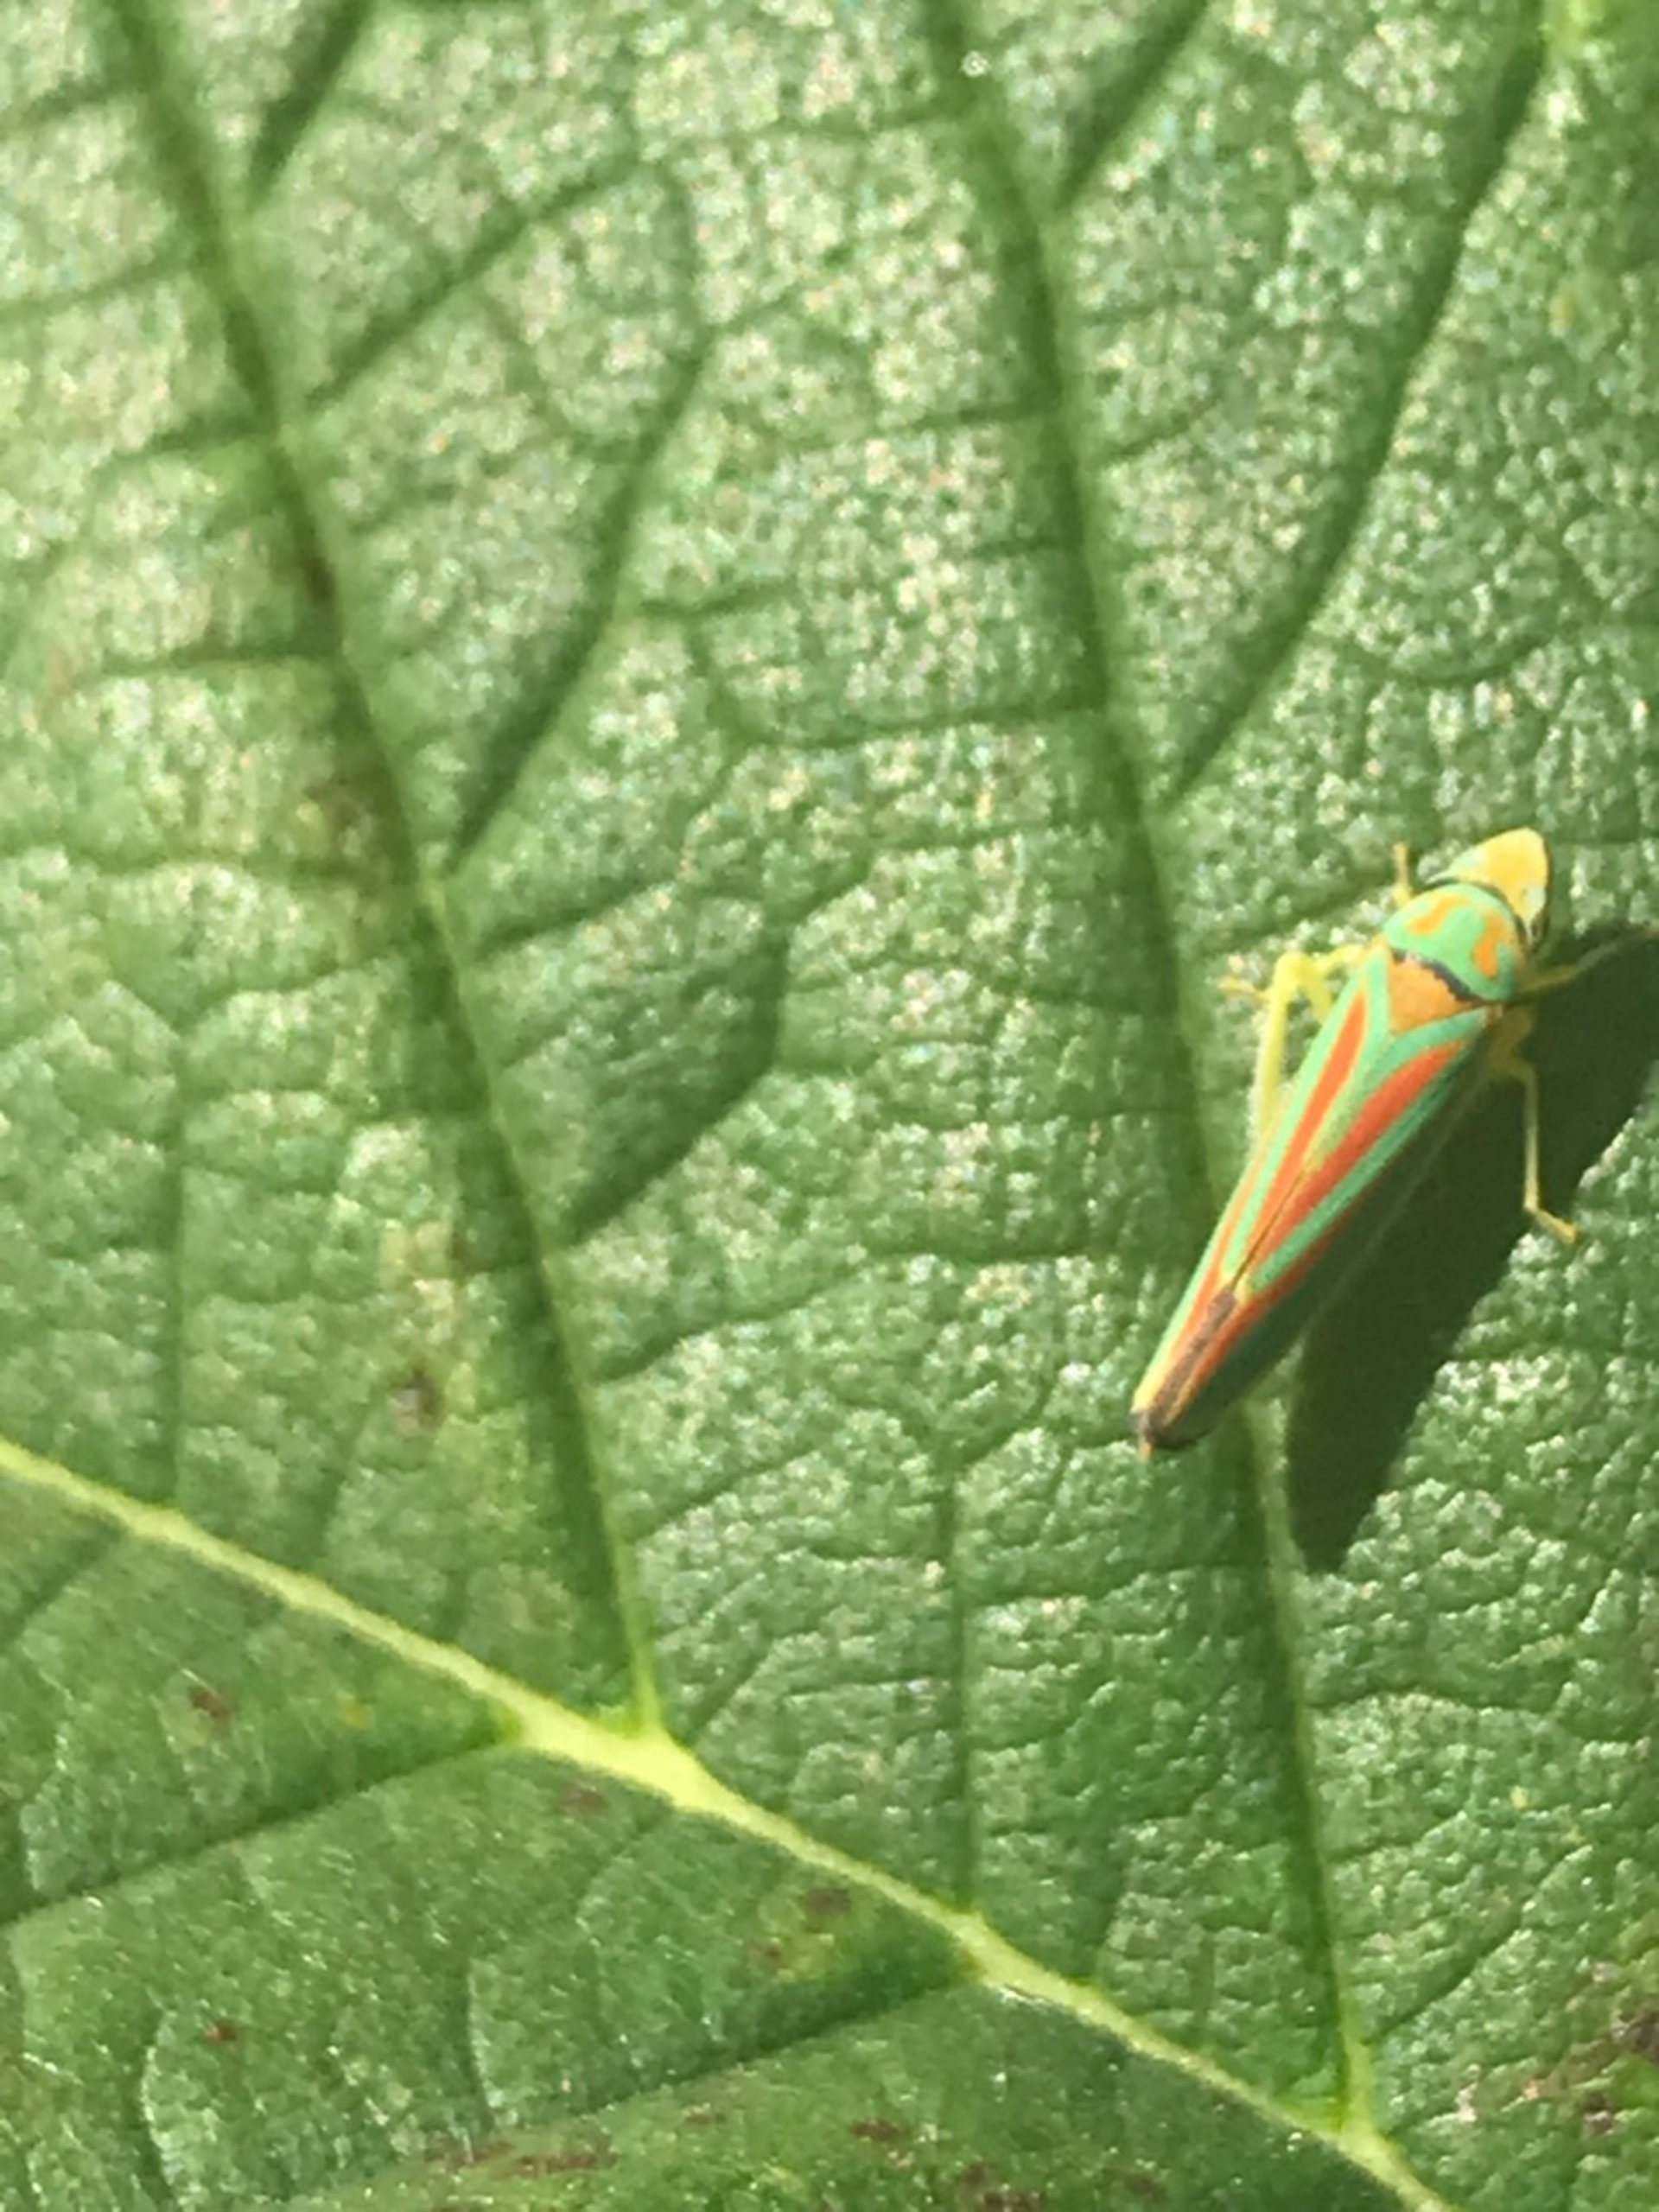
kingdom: Animalia
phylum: Arthropoda
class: Insecta
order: Hemiptera
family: Cicadellidae
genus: Graphocephala
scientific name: Graphocephala fennahi
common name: Rododendroncikade
